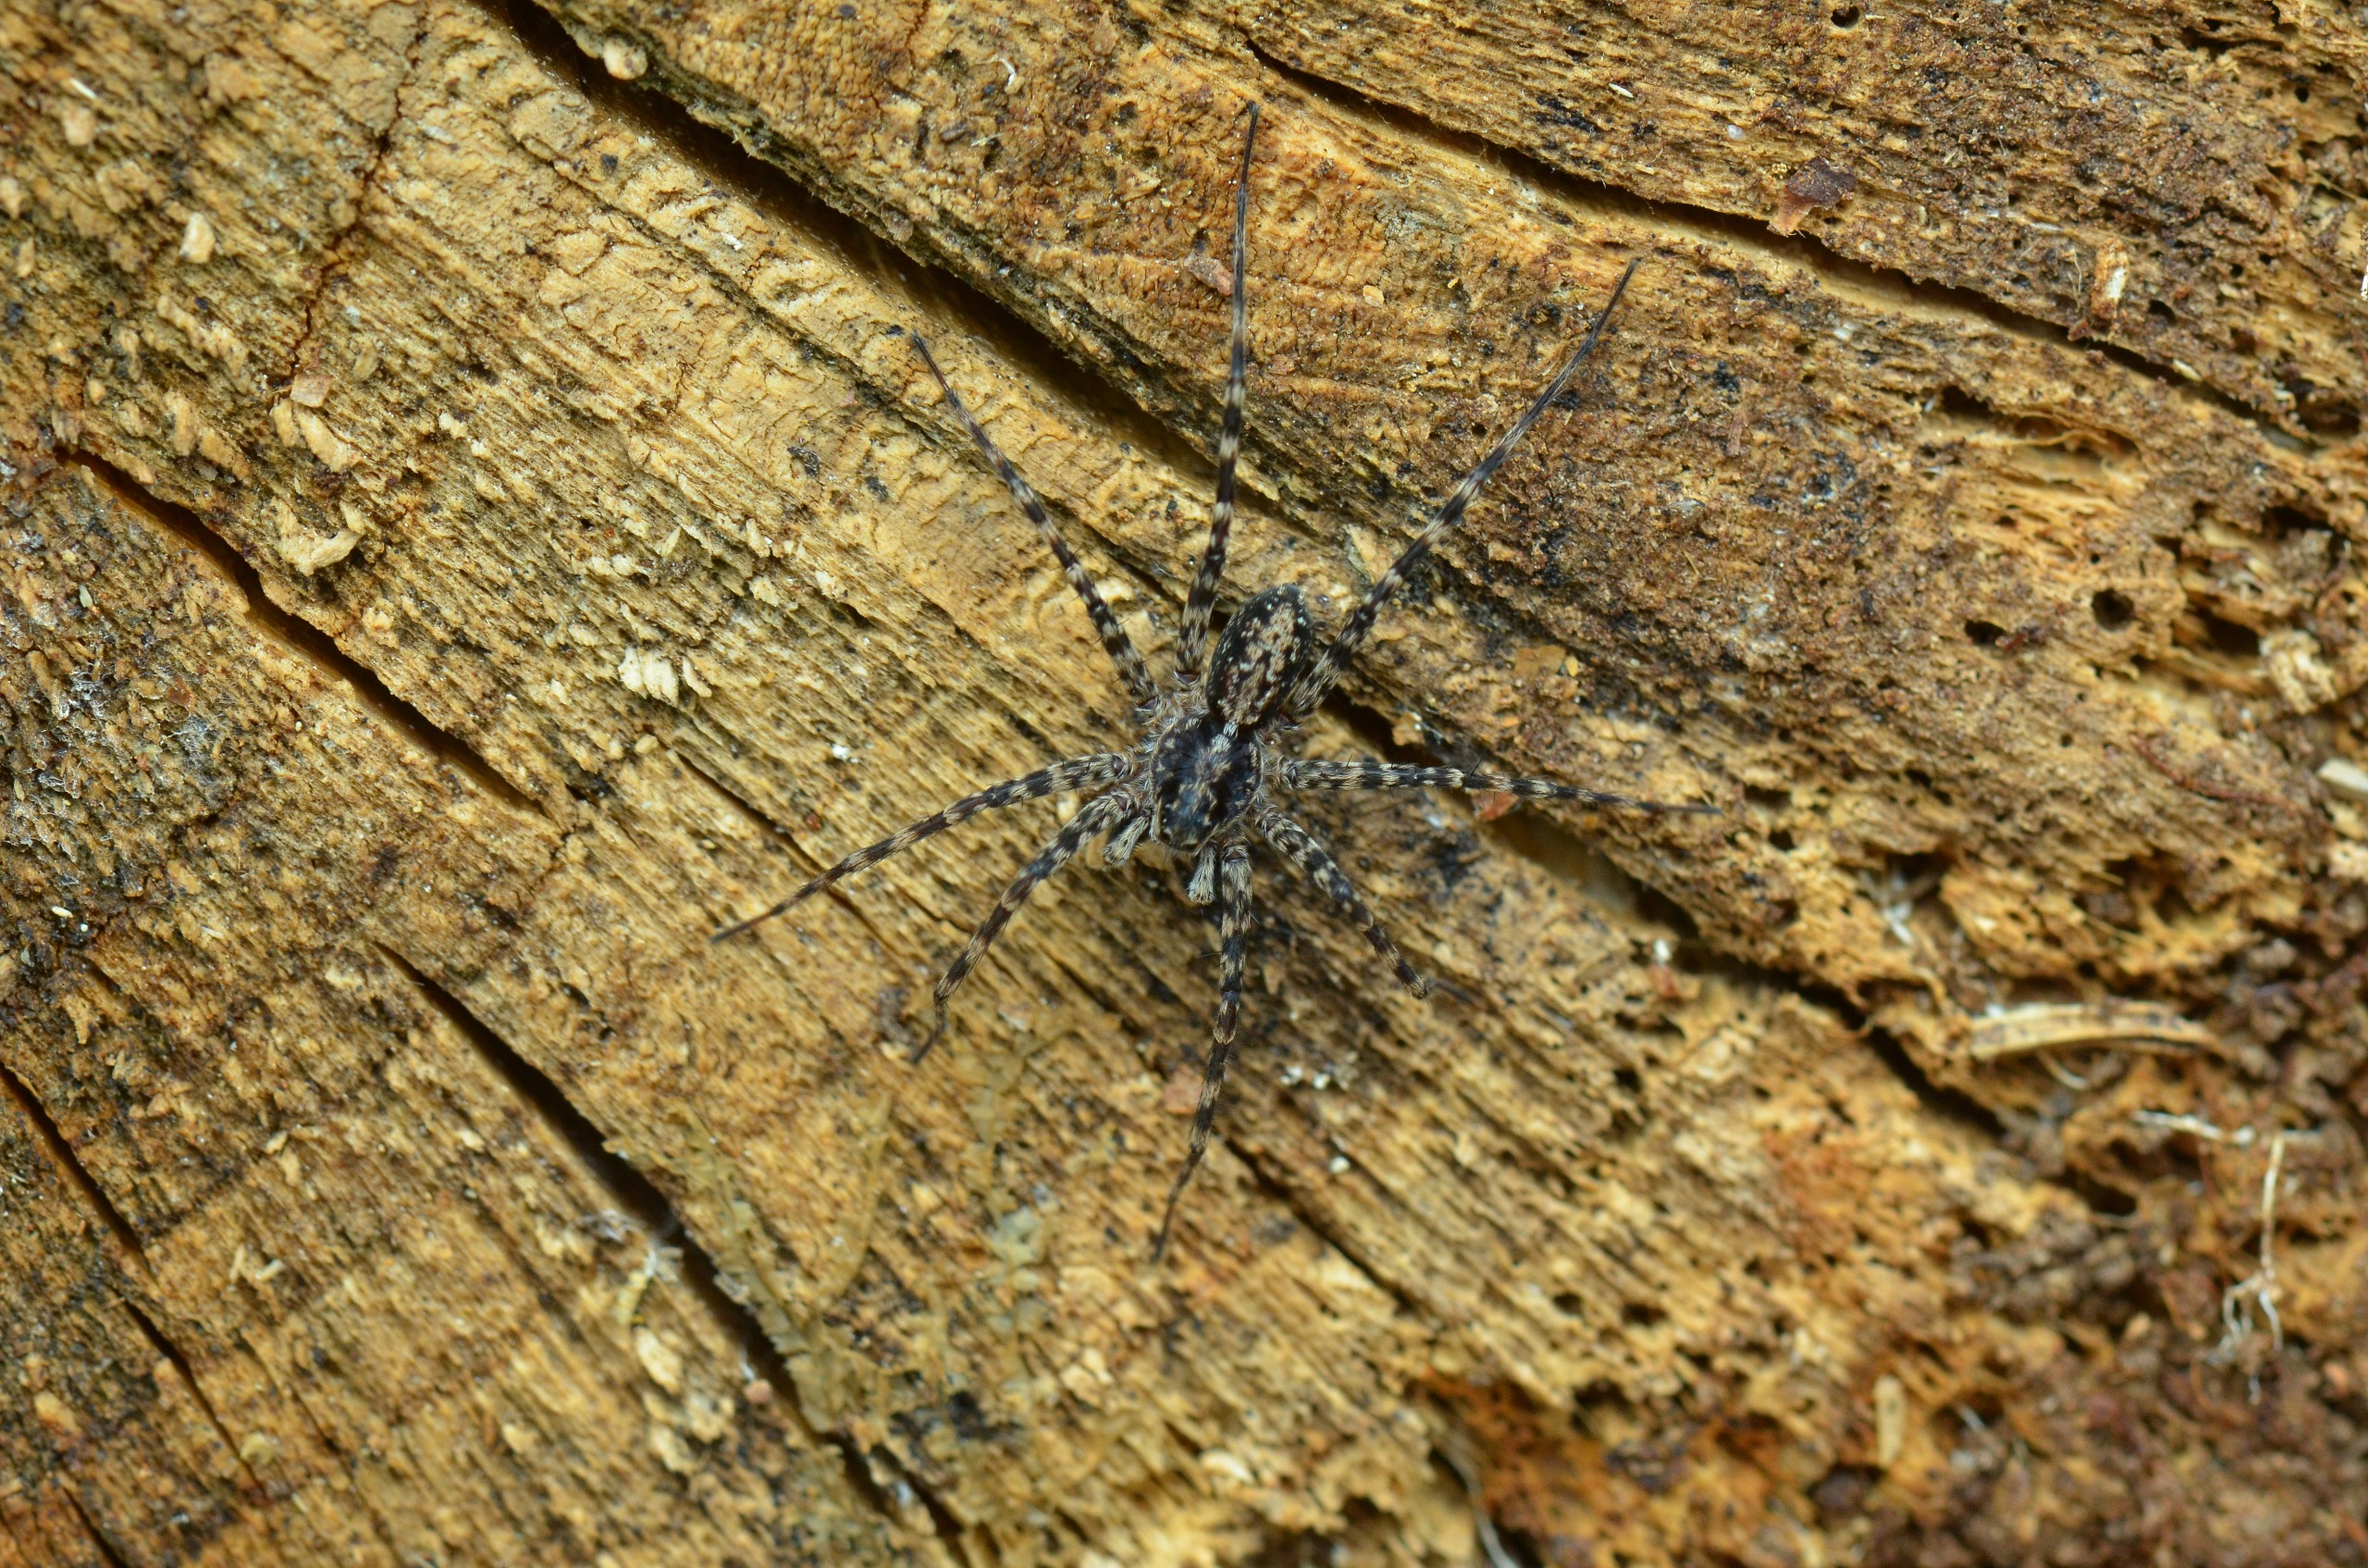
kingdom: Animalia
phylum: Arthropoda
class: Arachnida
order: Araneae
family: Lycosidae
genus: Acantholycosa
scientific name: Acantholycosa lignaria
